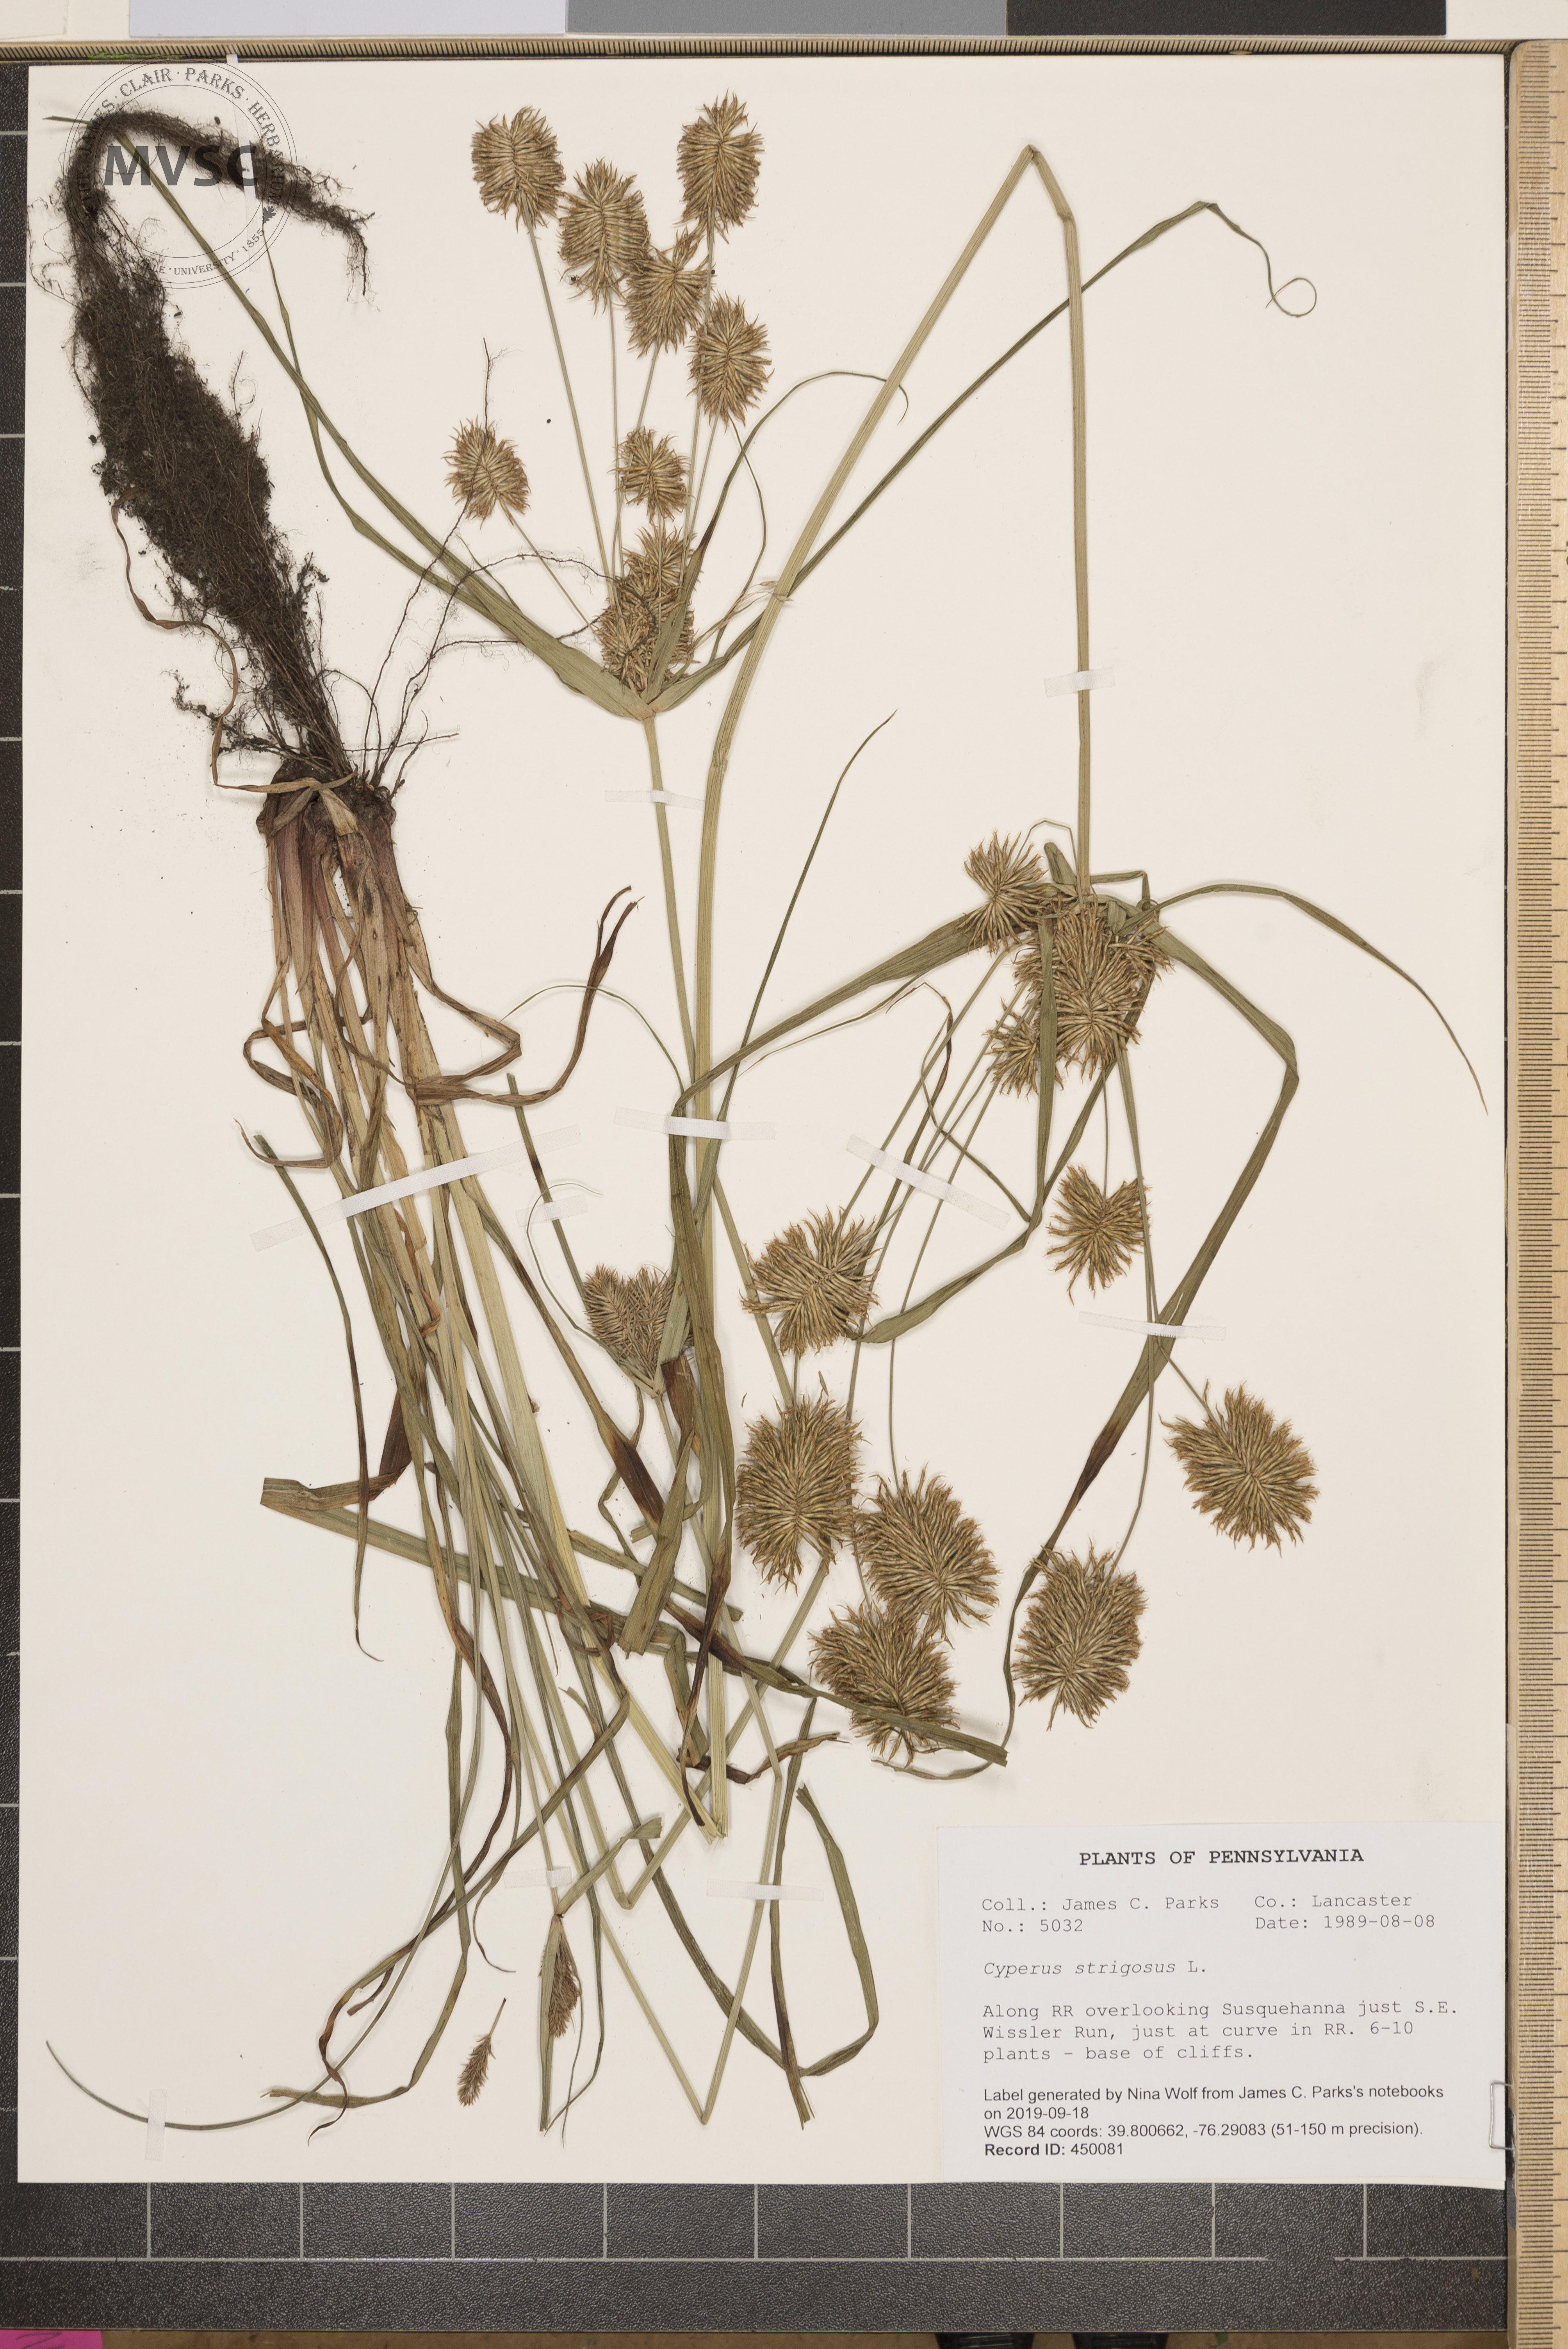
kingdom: Plantae
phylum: Tracheophyta
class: Liliopsida
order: Poales
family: Cyperaceae
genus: Cyperus
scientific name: Cyperus strigosus
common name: False nutsedge
